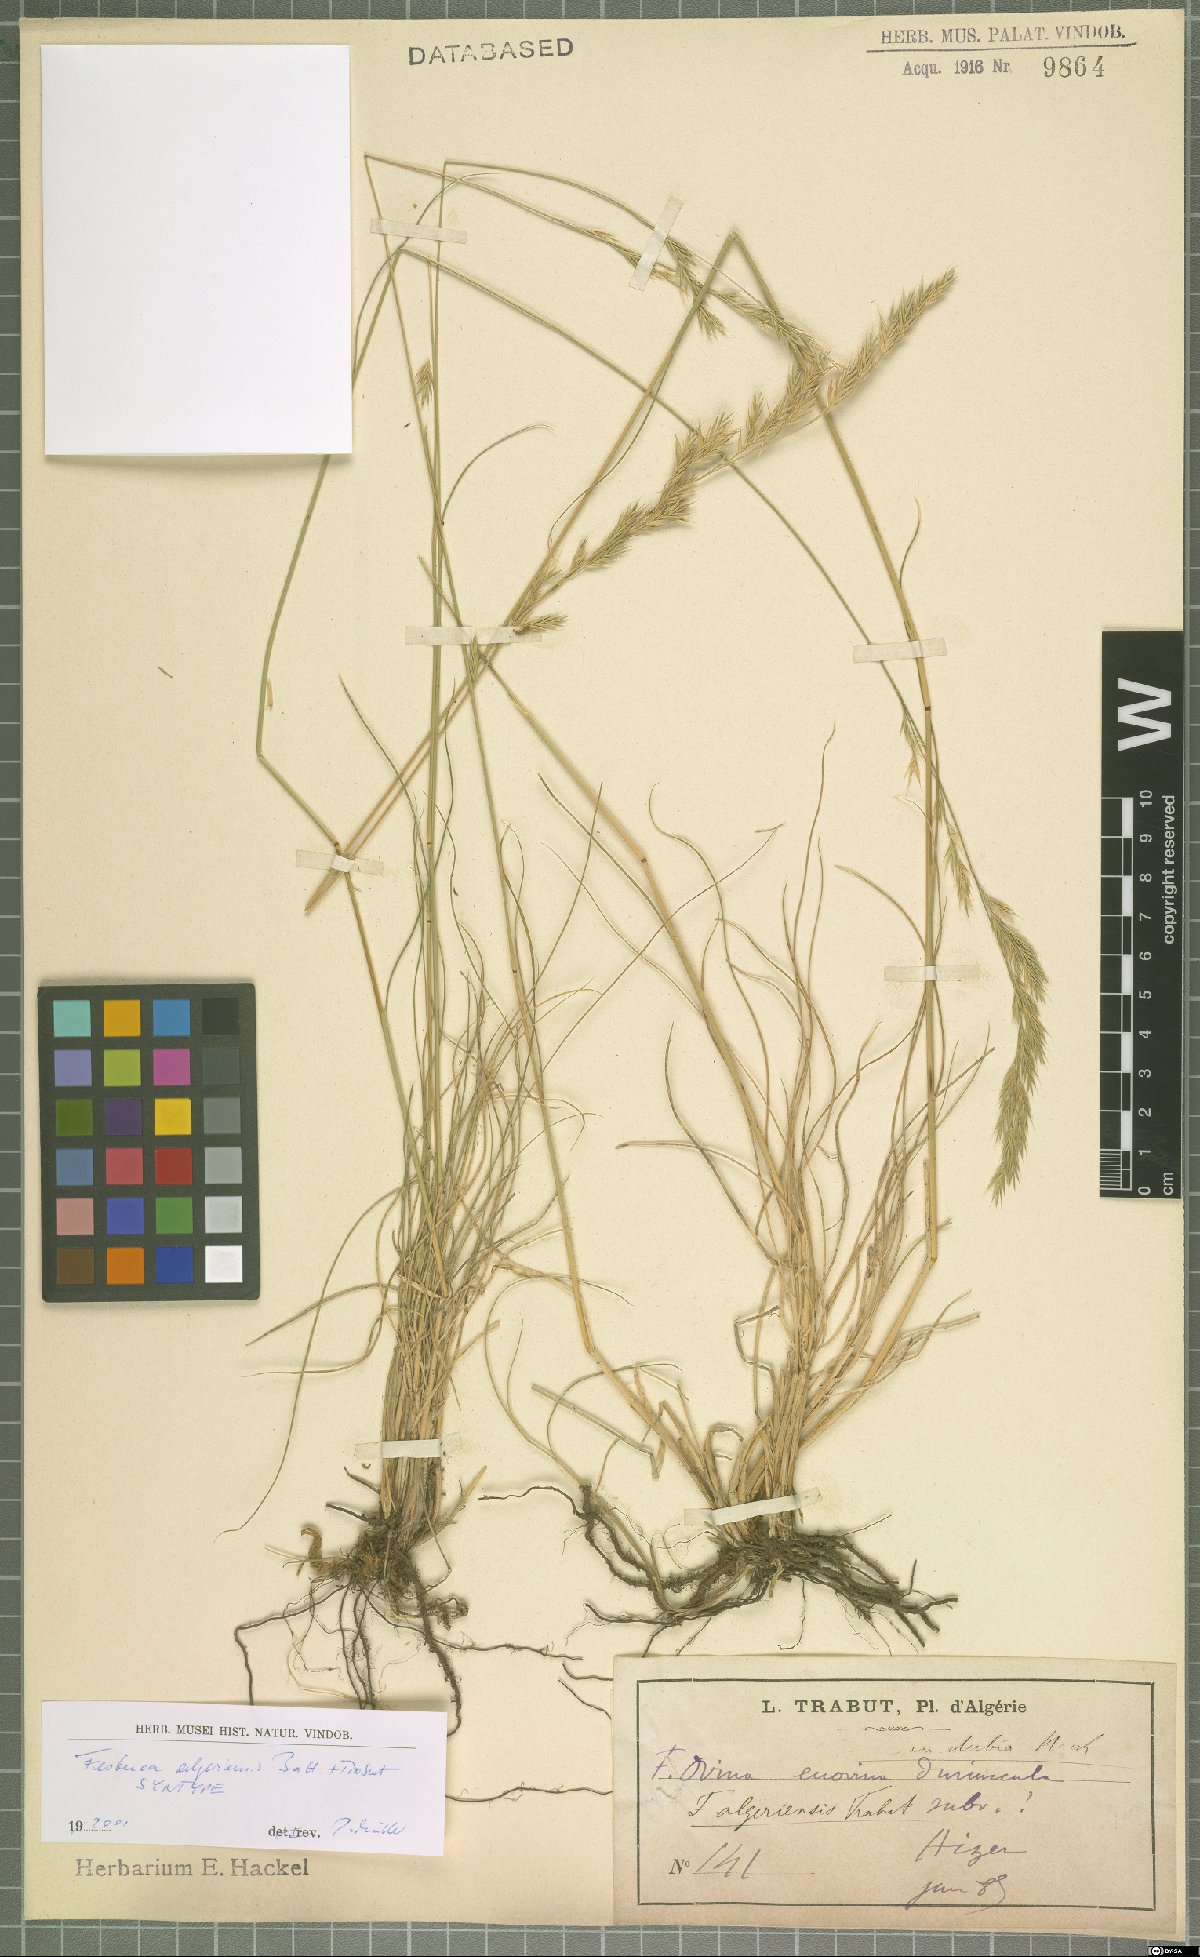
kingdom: Plantae
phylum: Tracheophyta
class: Liliopsida
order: Poales
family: Poaceae
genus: Festuca
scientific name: Festuca algeriensis
